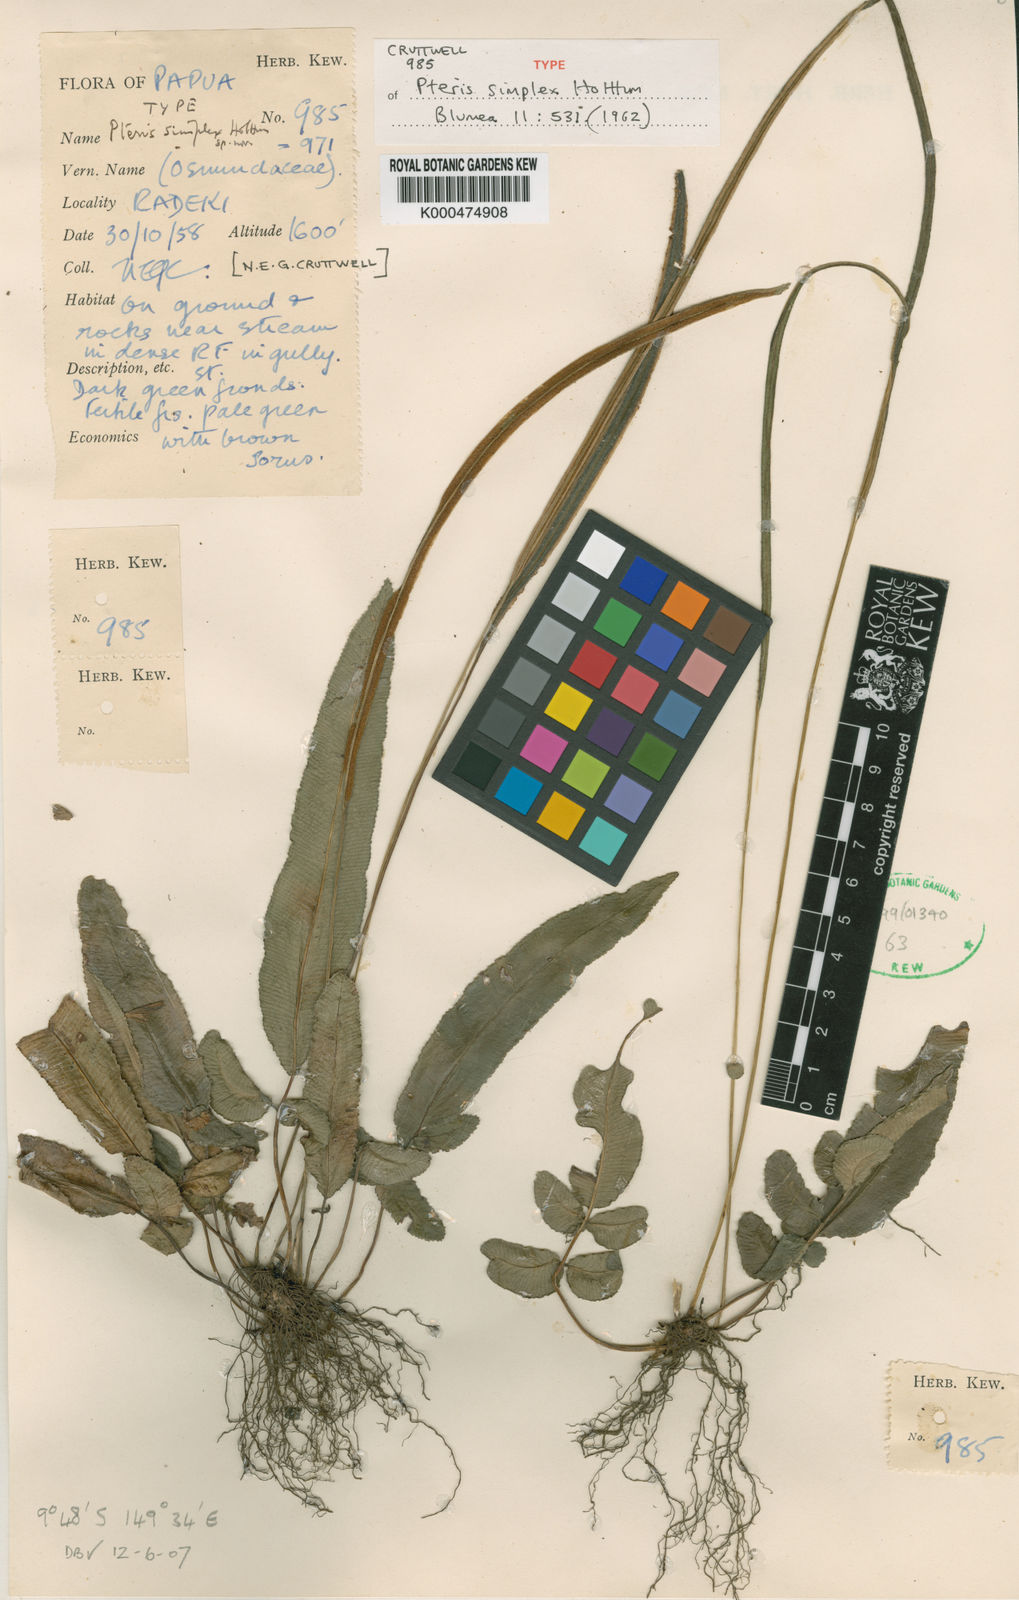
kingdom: Plantae
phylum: Tracheophyta
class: Polypodiopsida
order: Polypodiales
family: Pteridaceae
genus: Pteris
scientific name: Pteris simplex
